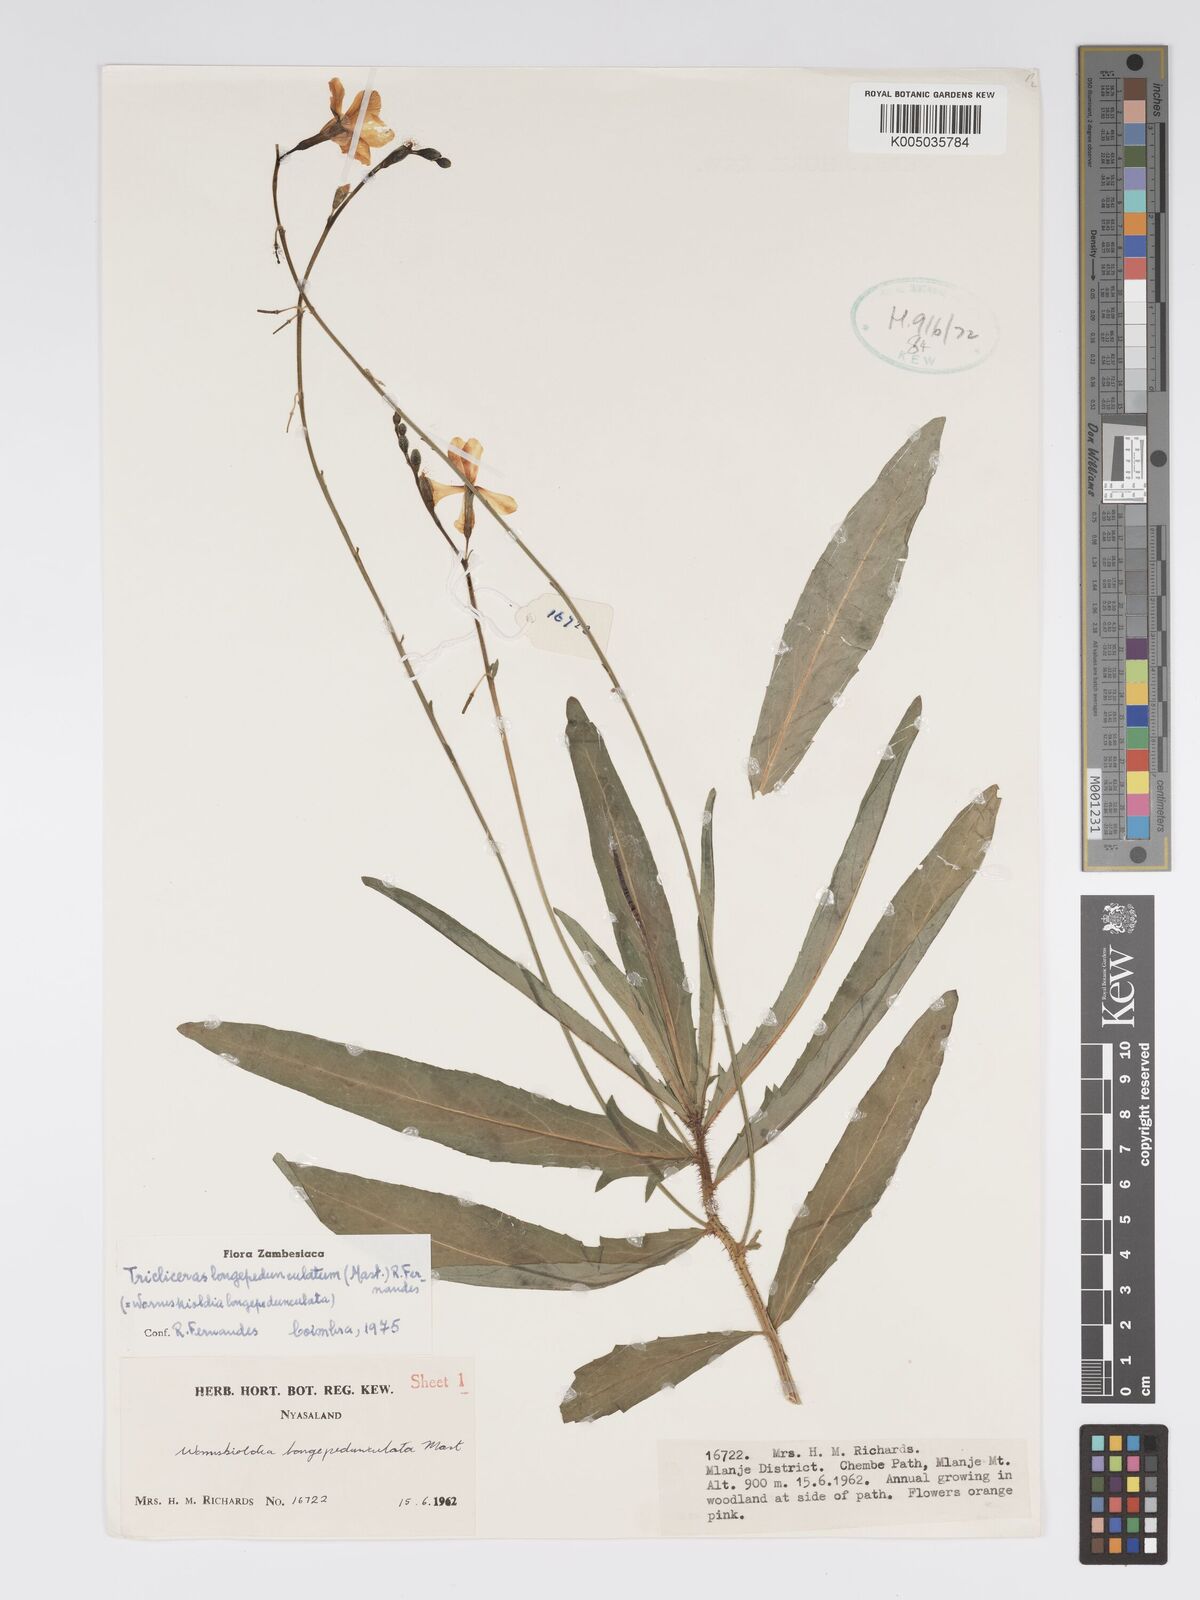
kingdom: Plantae
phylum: Tracheophyta
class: Magnoliopsida
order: Malpighiales
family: Turneraceae
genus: Tricliceras
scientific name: Tricliceras longepedunculatum
